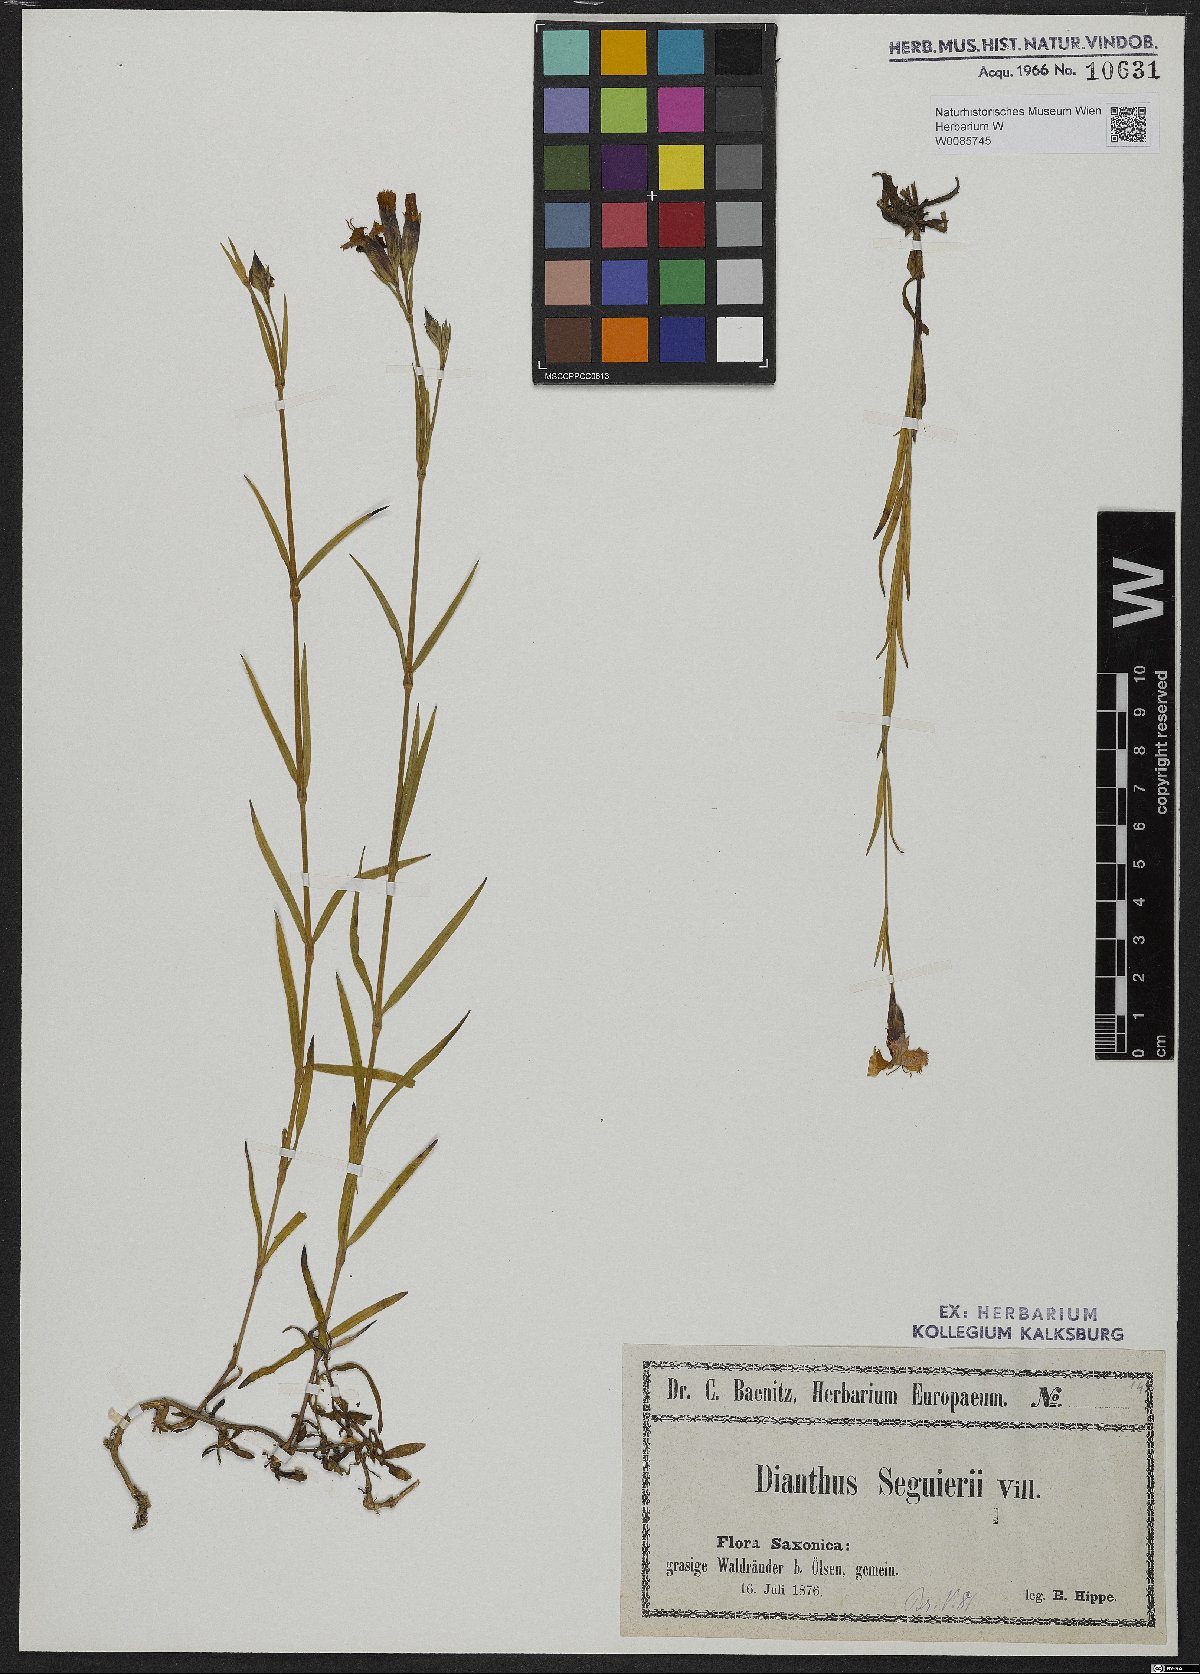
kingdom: Plantae
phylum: Tracheophyta
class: Magnoliopsida
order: Caryophyllales
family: Caryophyllaceae
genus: Dianthus
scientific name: Dianthus seguieri
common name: Ragged pink
